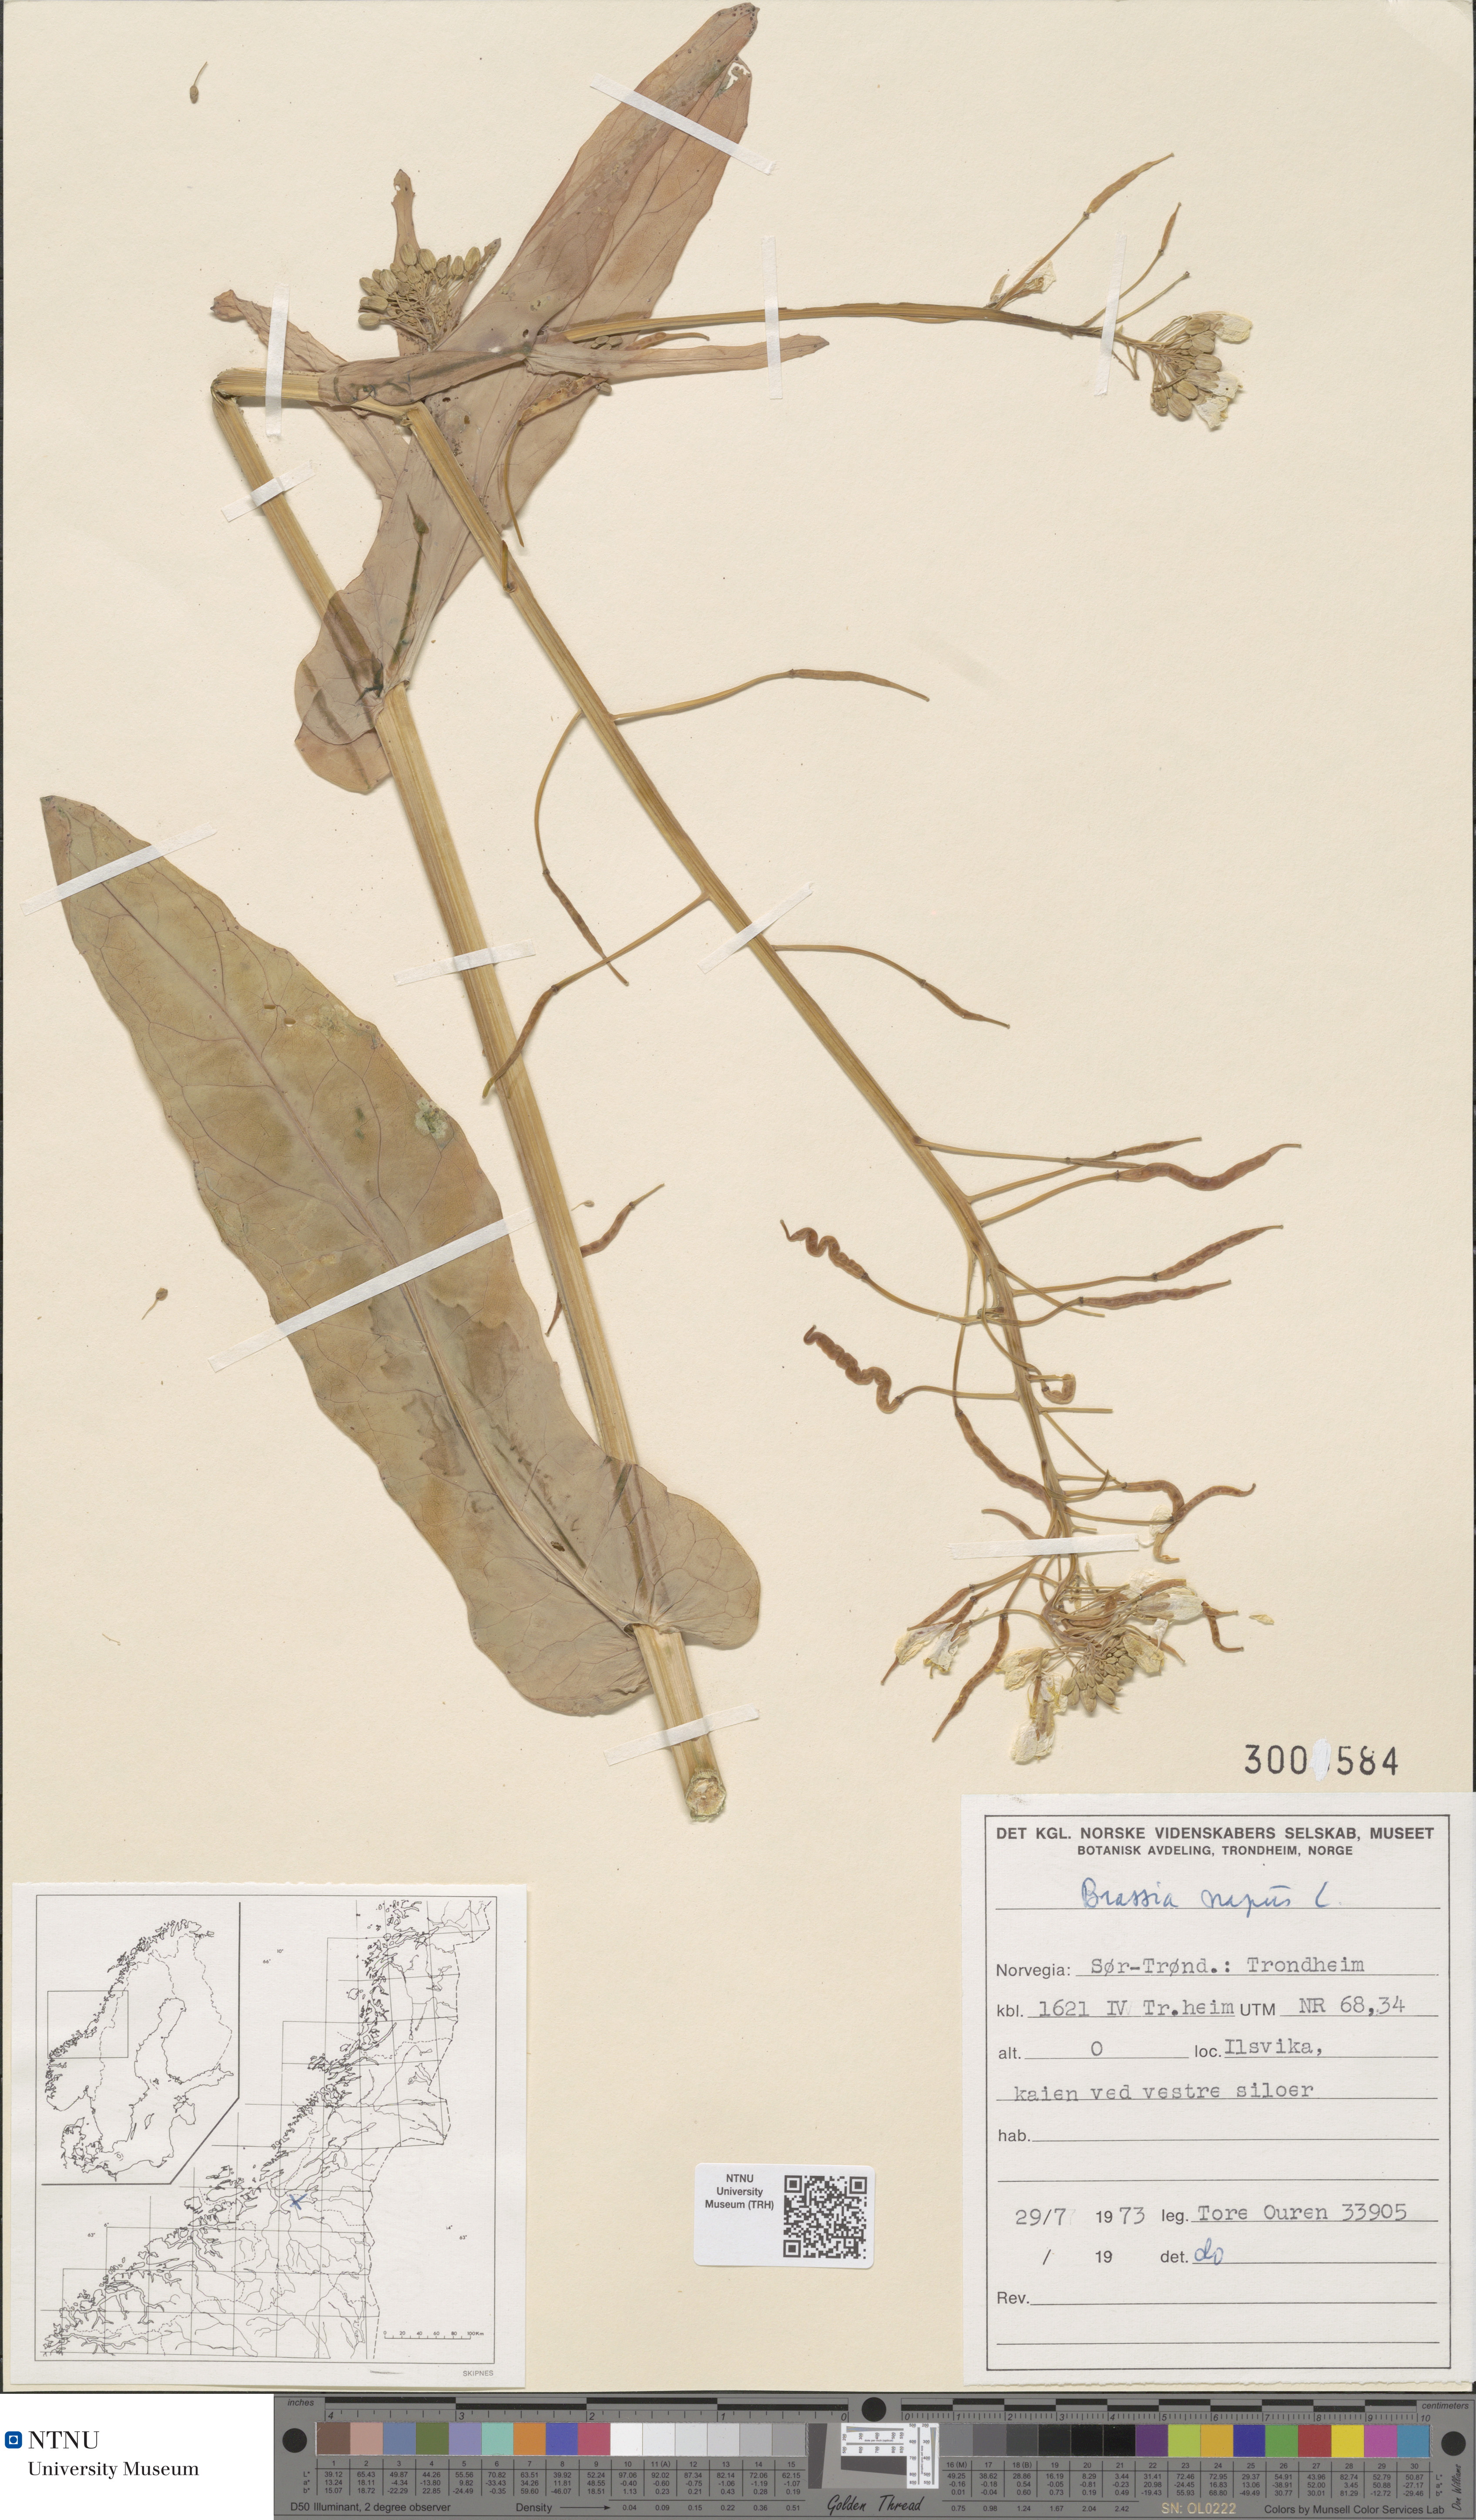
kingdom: Plantae
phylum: Tracheophyta
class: Magnoliopsida
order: Brassicales
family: Brassicaceae
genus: Brassica
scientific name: Brassica napus
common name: Rape
